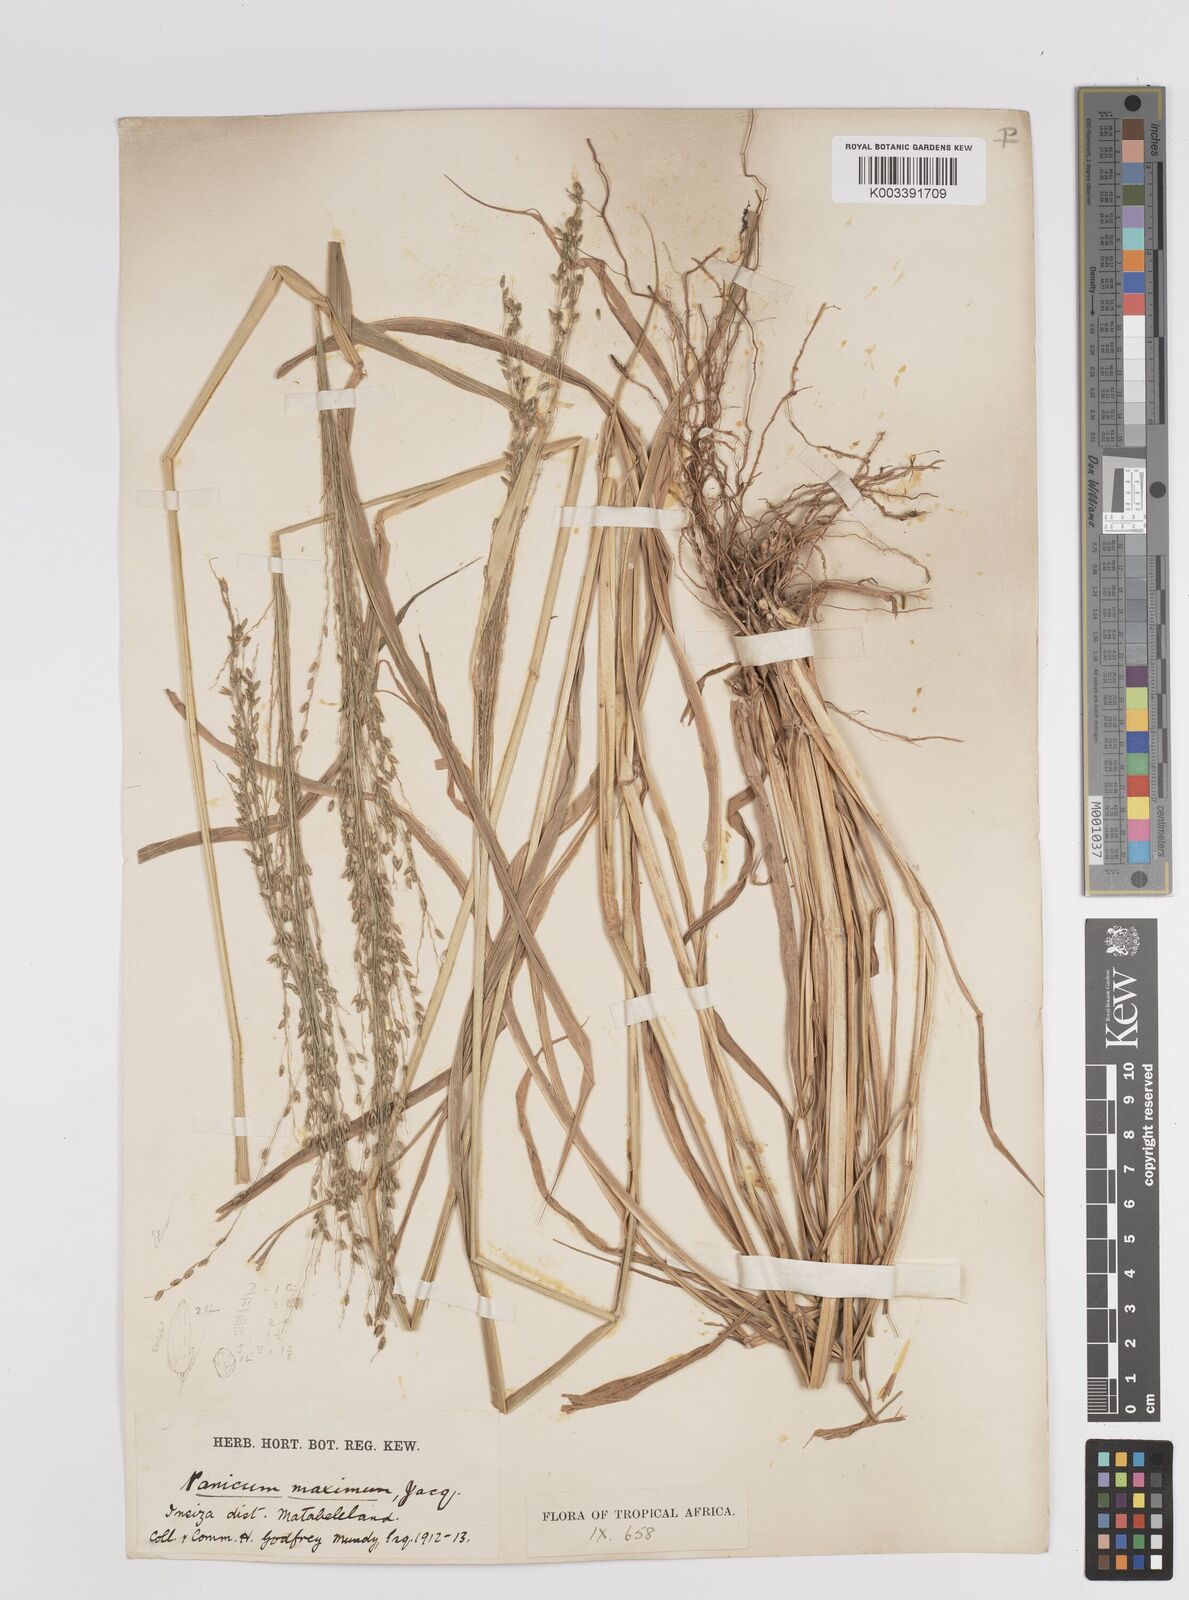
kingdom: Plantae
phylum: Tracheophyta
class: Liliopsida
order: Poales
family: Poaceae
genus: Megathyrsus
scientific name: Megathyrsus maximus
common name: Guineagrass
